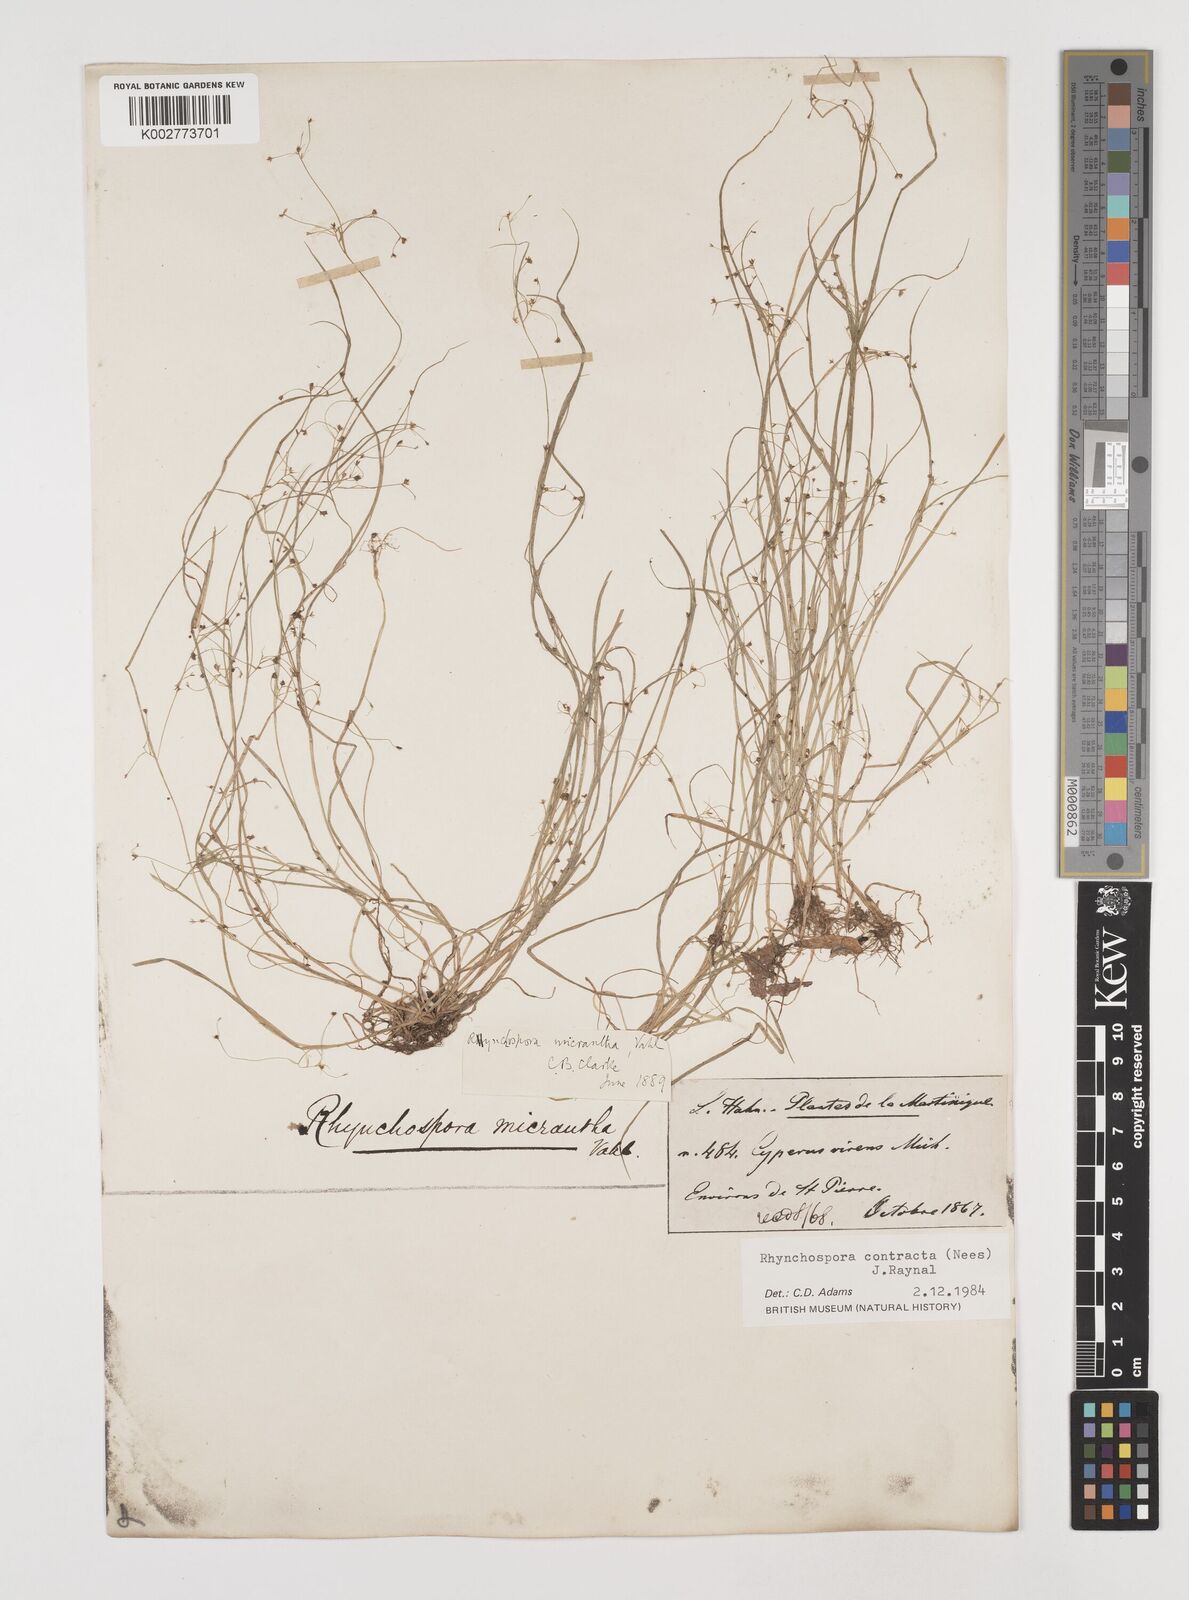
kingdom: Plantae
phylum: Tracheophyta
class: Liliopsida
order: Poales
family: Cyperaceae
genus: Rhynchospora
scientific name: Rhynchospora contracta
